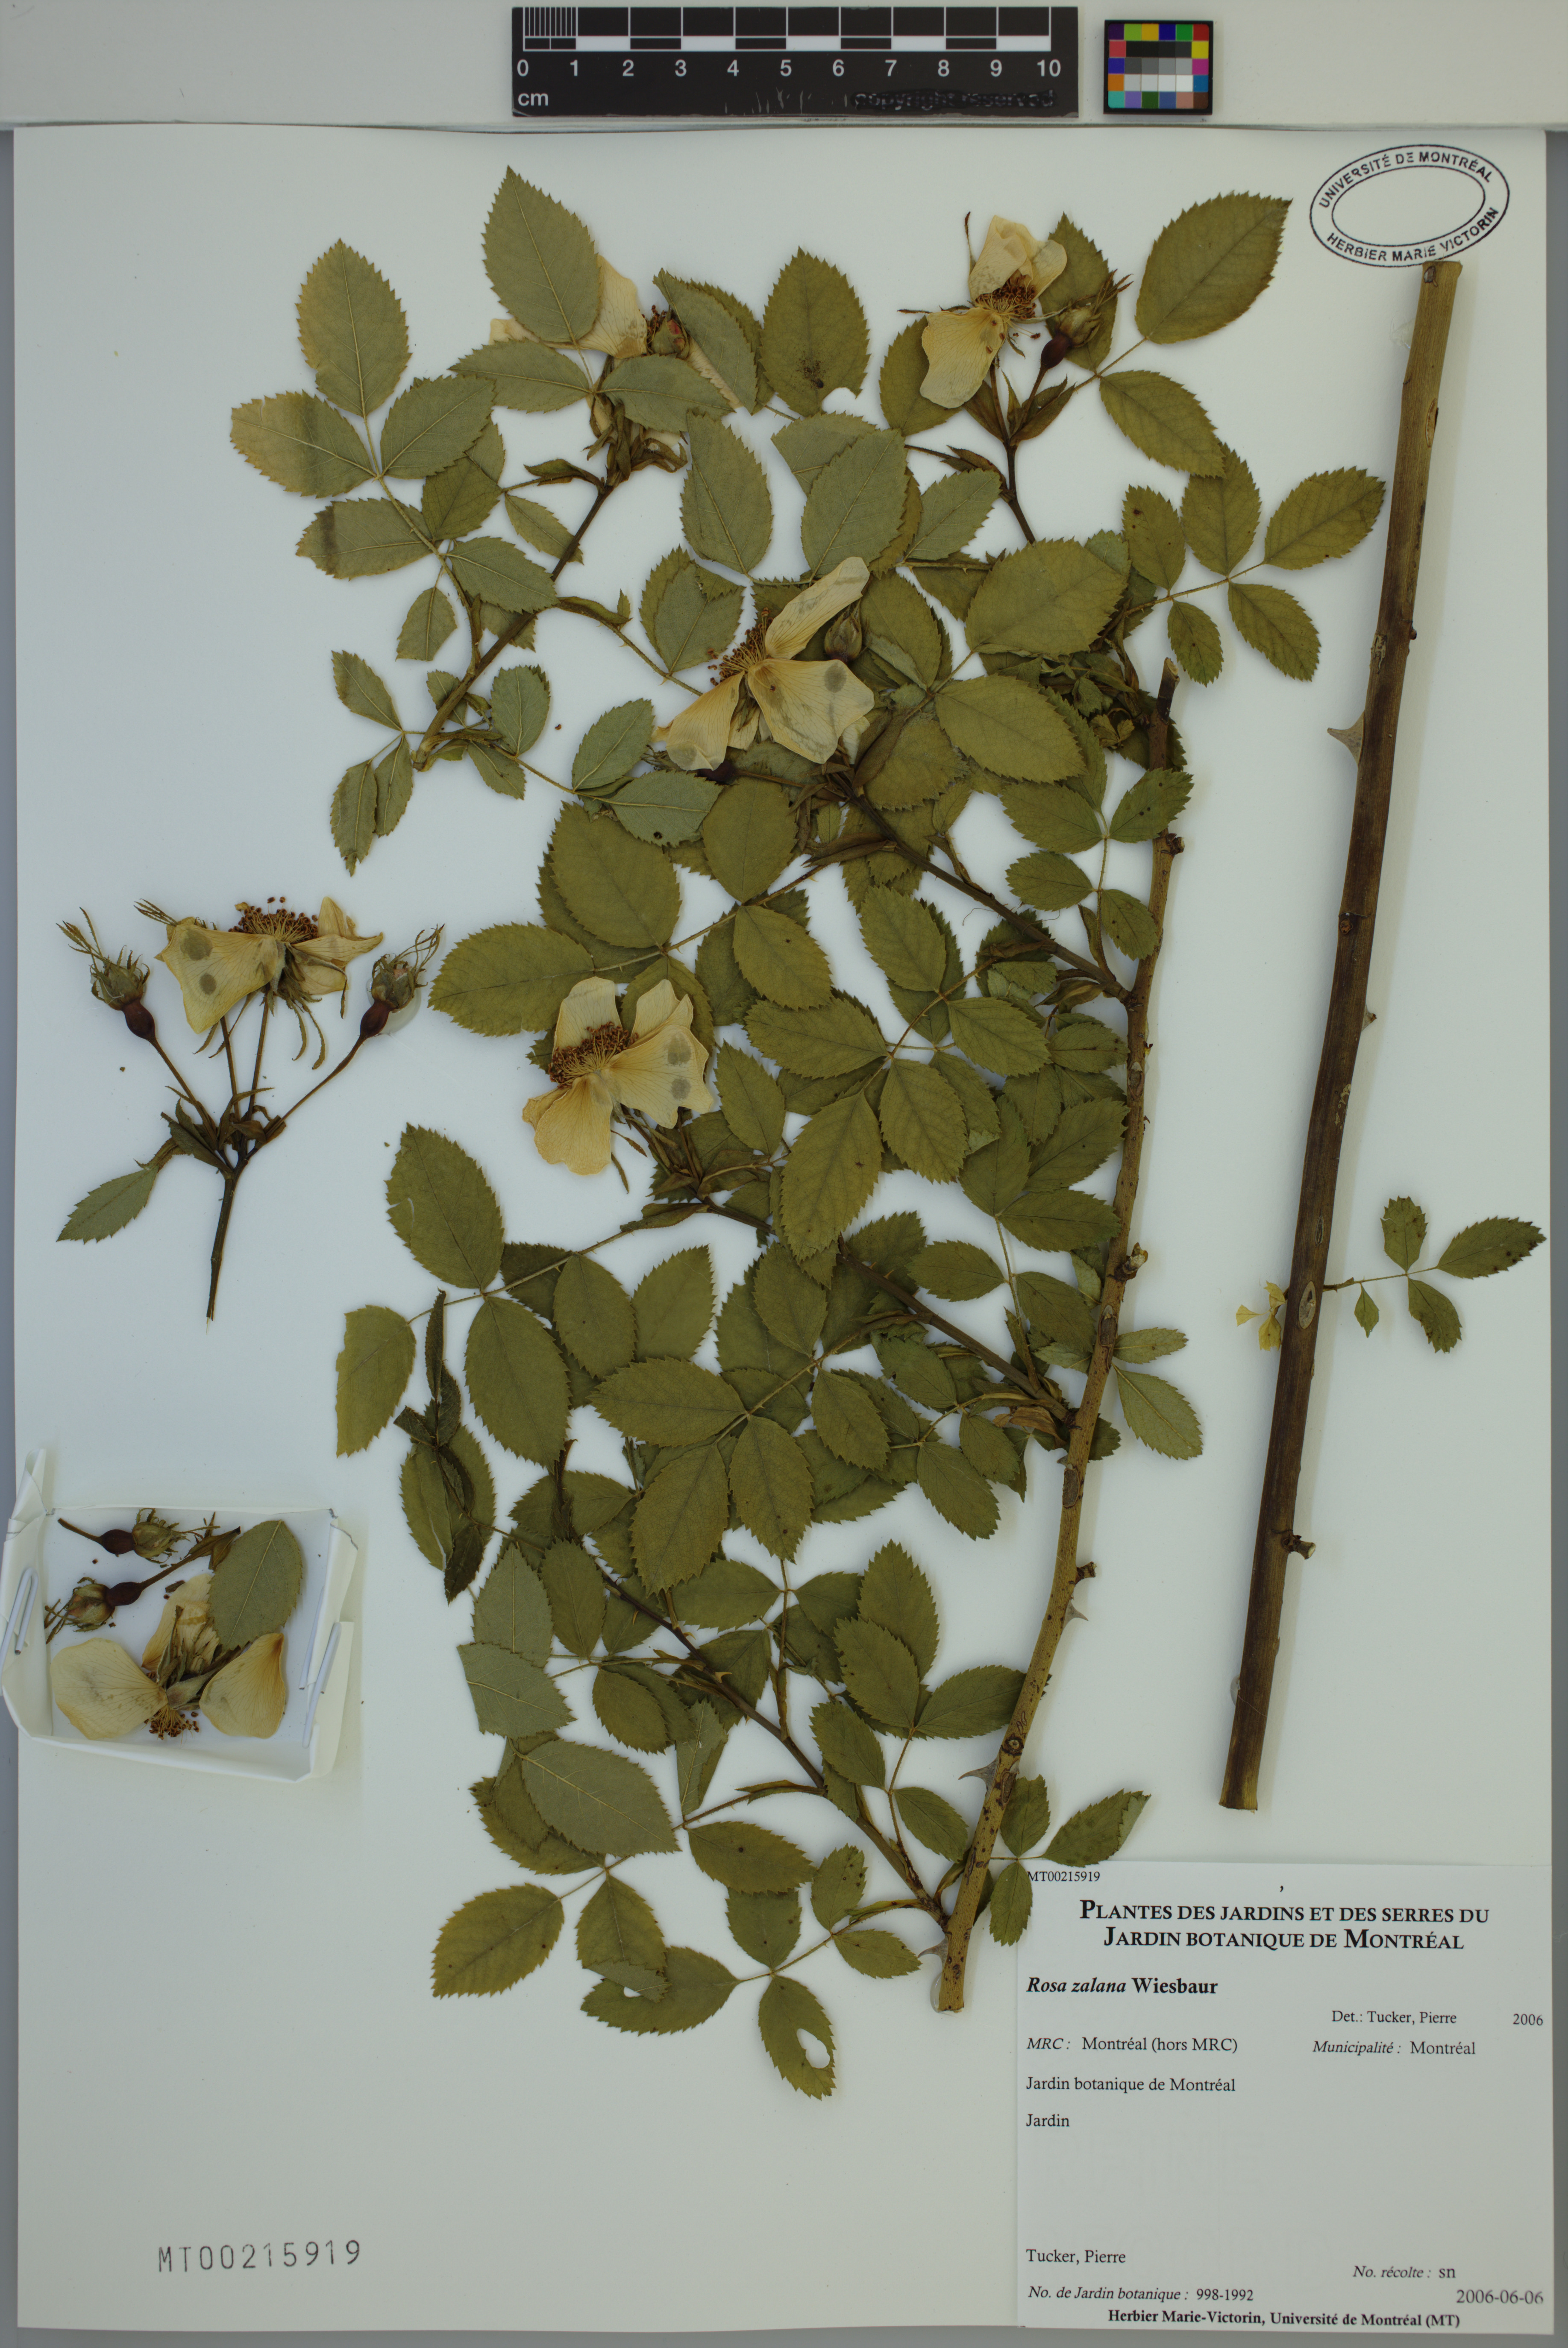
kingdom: Plantae
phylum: Tracheophyta
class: Magnoliopsida
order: Rosales
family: Rosaceae
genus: Rosa
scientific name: Rosa zalana
